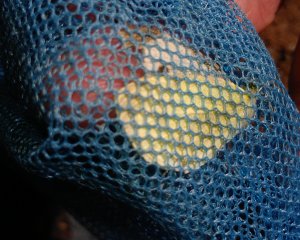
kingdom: Animalia
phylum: Arthropoda
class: Insecta
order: Lepidoptera
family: Pieridae
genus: Pieris
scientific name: Pieris rapae
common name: Cabbage White
